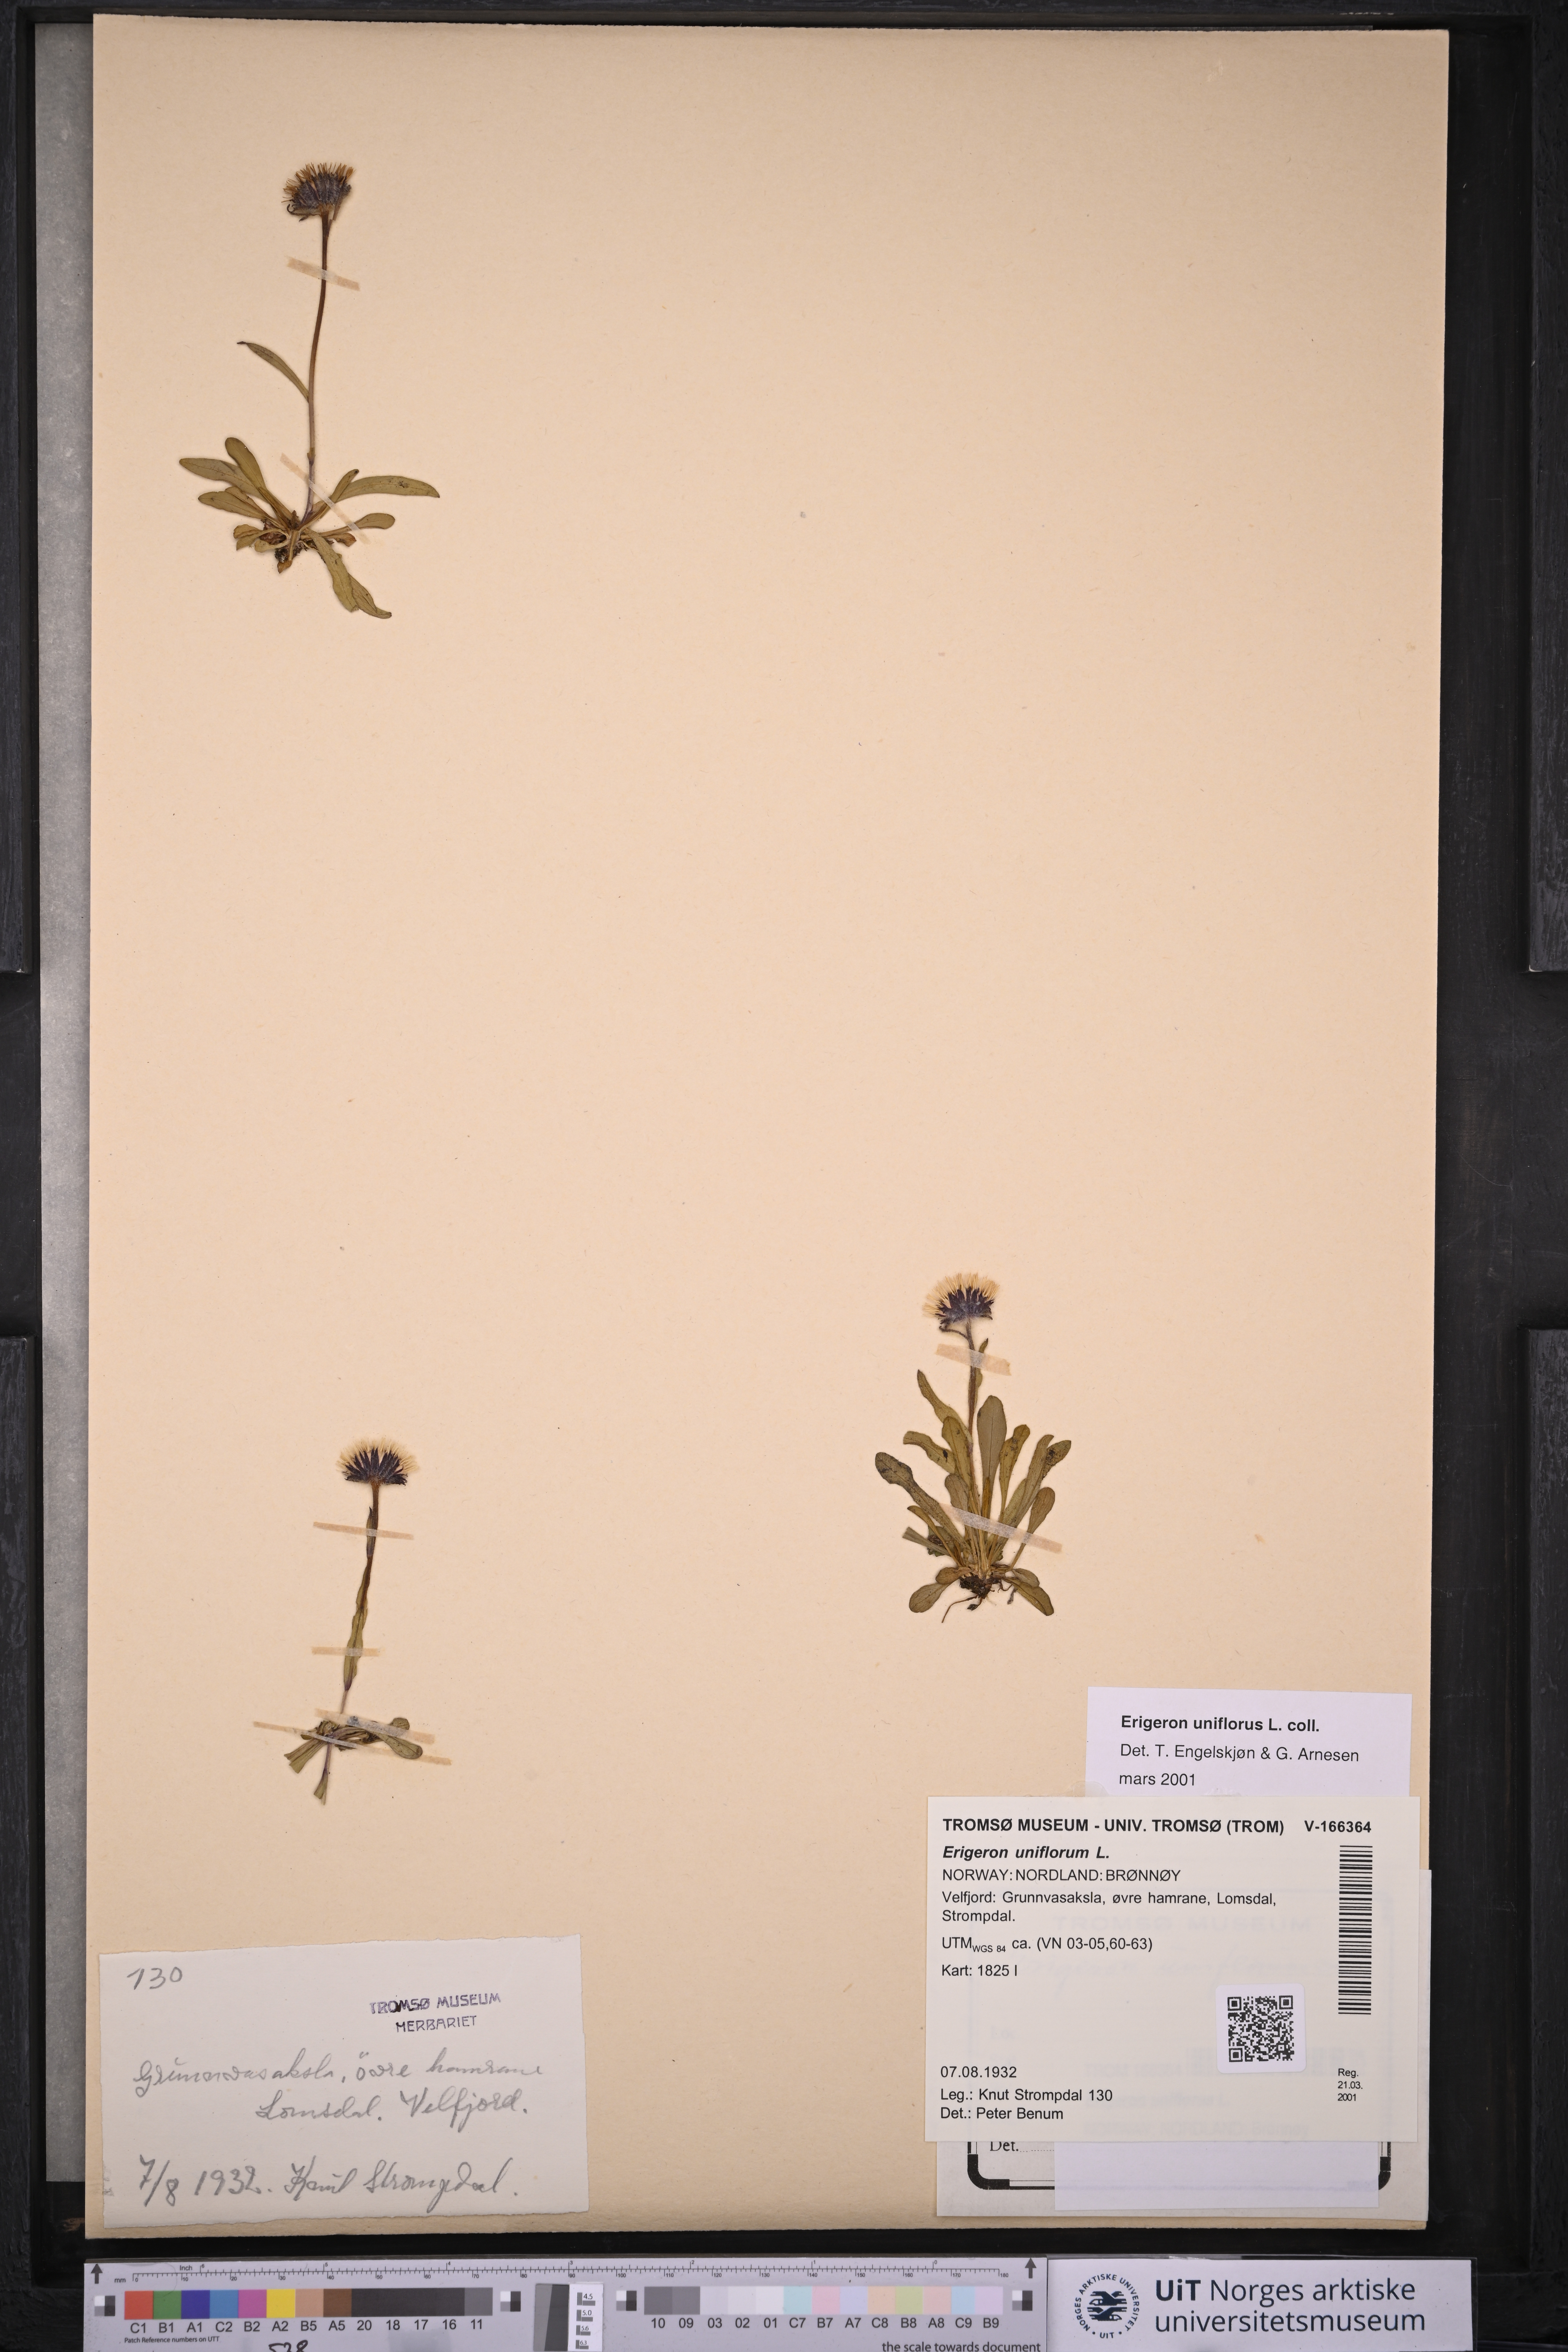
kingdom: Plantae
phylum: Tracheophyta
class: Magnoliopsida
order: Asterales
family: Asteraceae
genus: Erigeron
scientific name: Erigeron uniflorus
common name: Northern daisy
